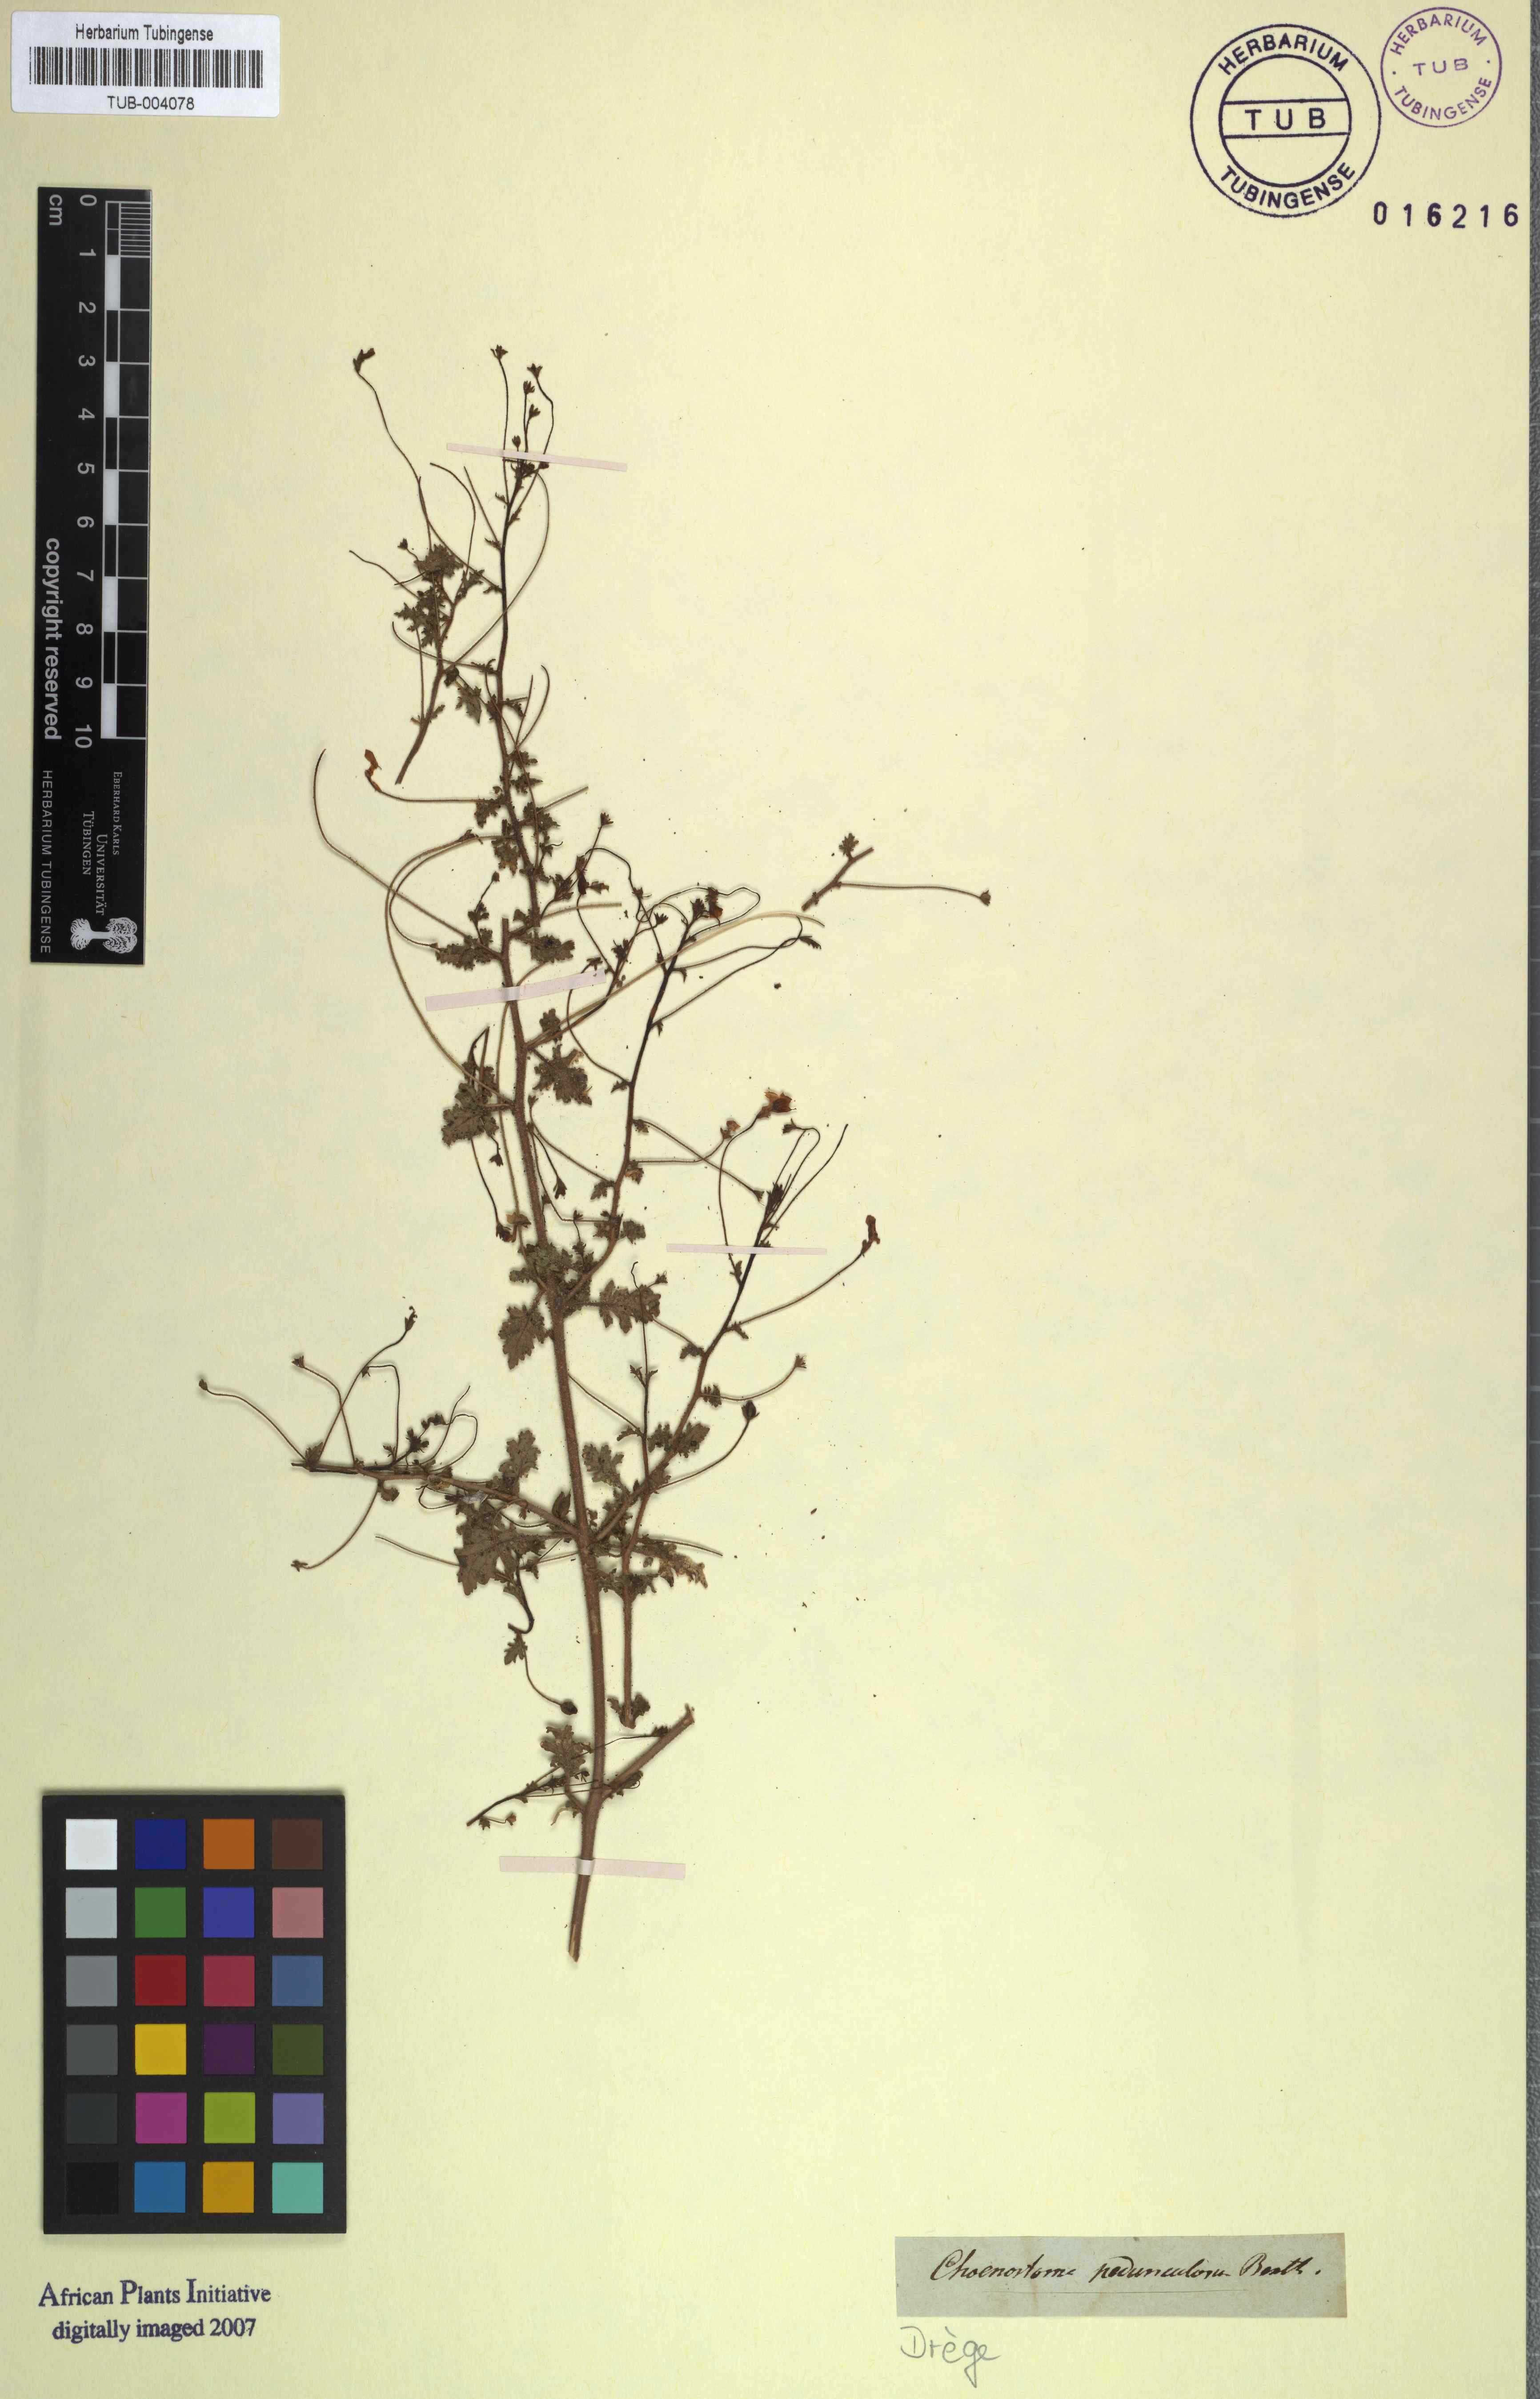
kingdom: Plantae
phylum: Tracheophyta
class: Magnoliopsida
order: Lamiales
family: Scrophulariaceae
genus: Jamesbrittenia
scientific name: Jamesbrittenia pedunculosa
